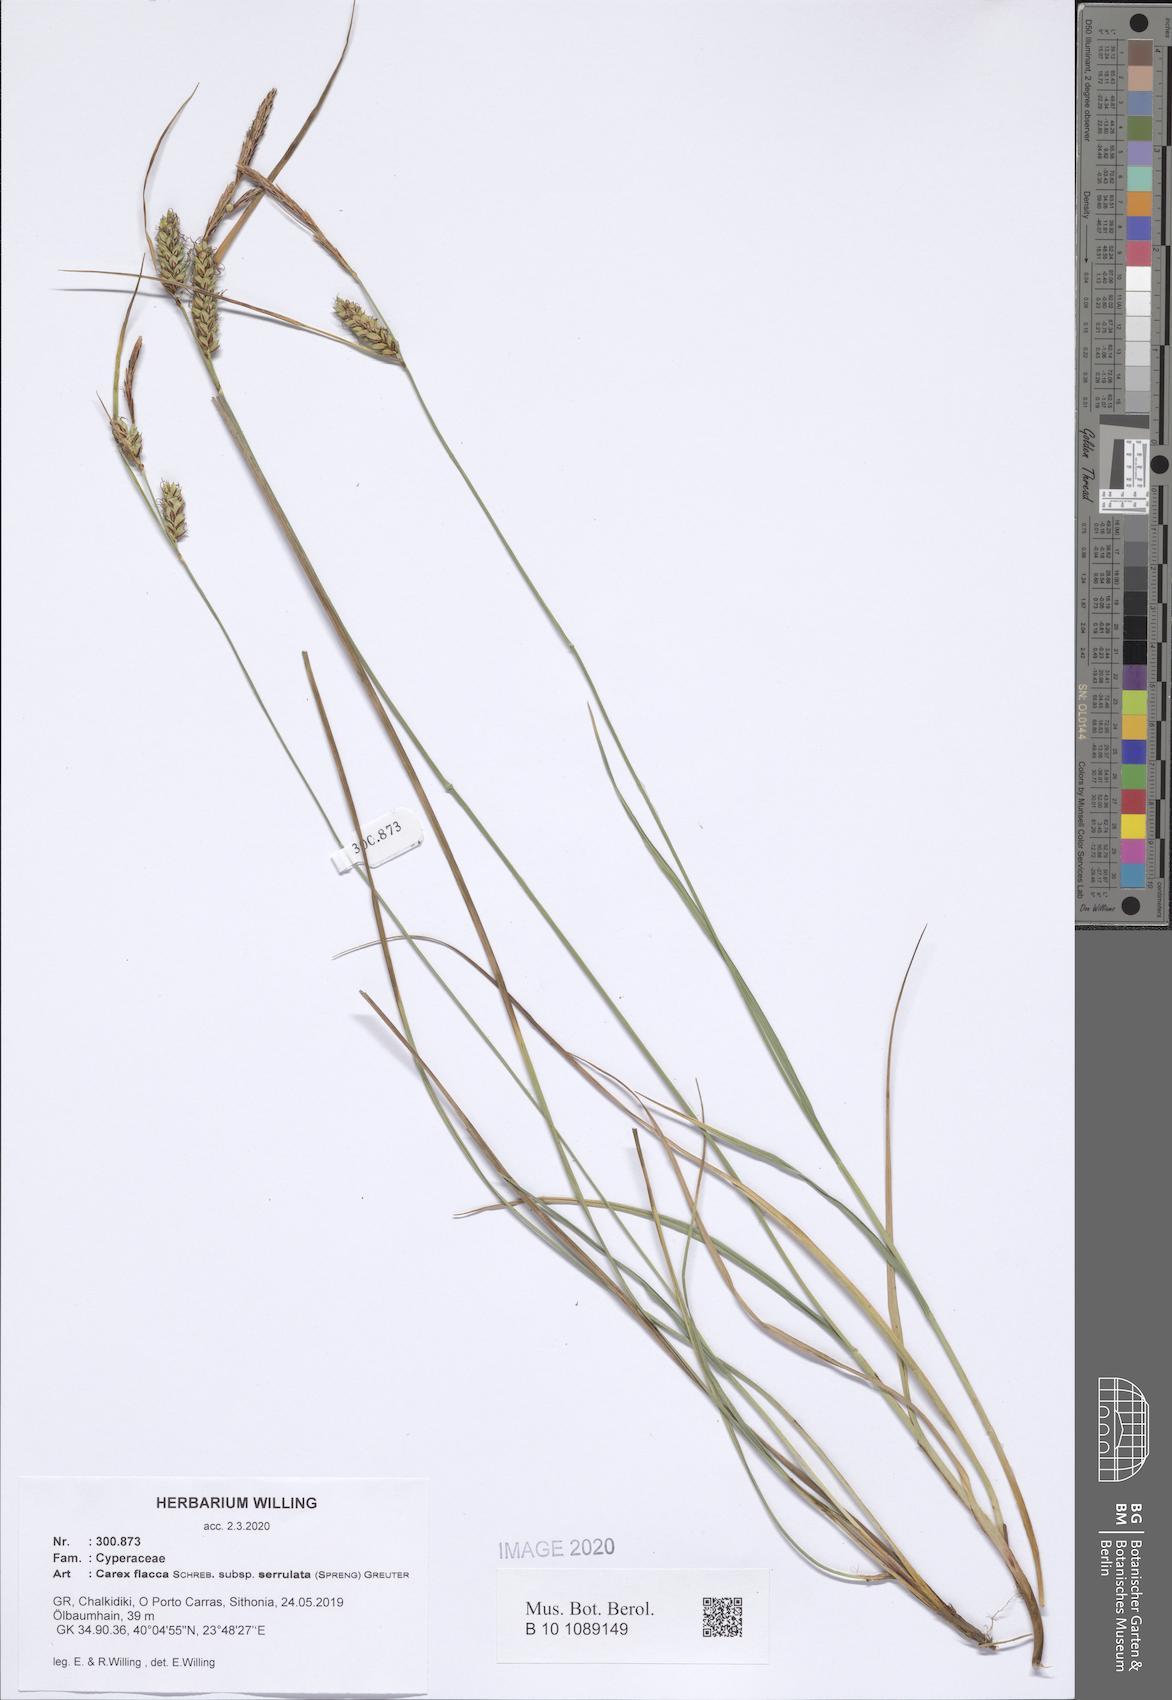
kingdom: Plantae
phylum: Tracheophyta
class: Liliopsida
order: Poales
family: Cyperaceae
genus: Carex
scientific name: Carex flacca
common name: Glaucous sedge
